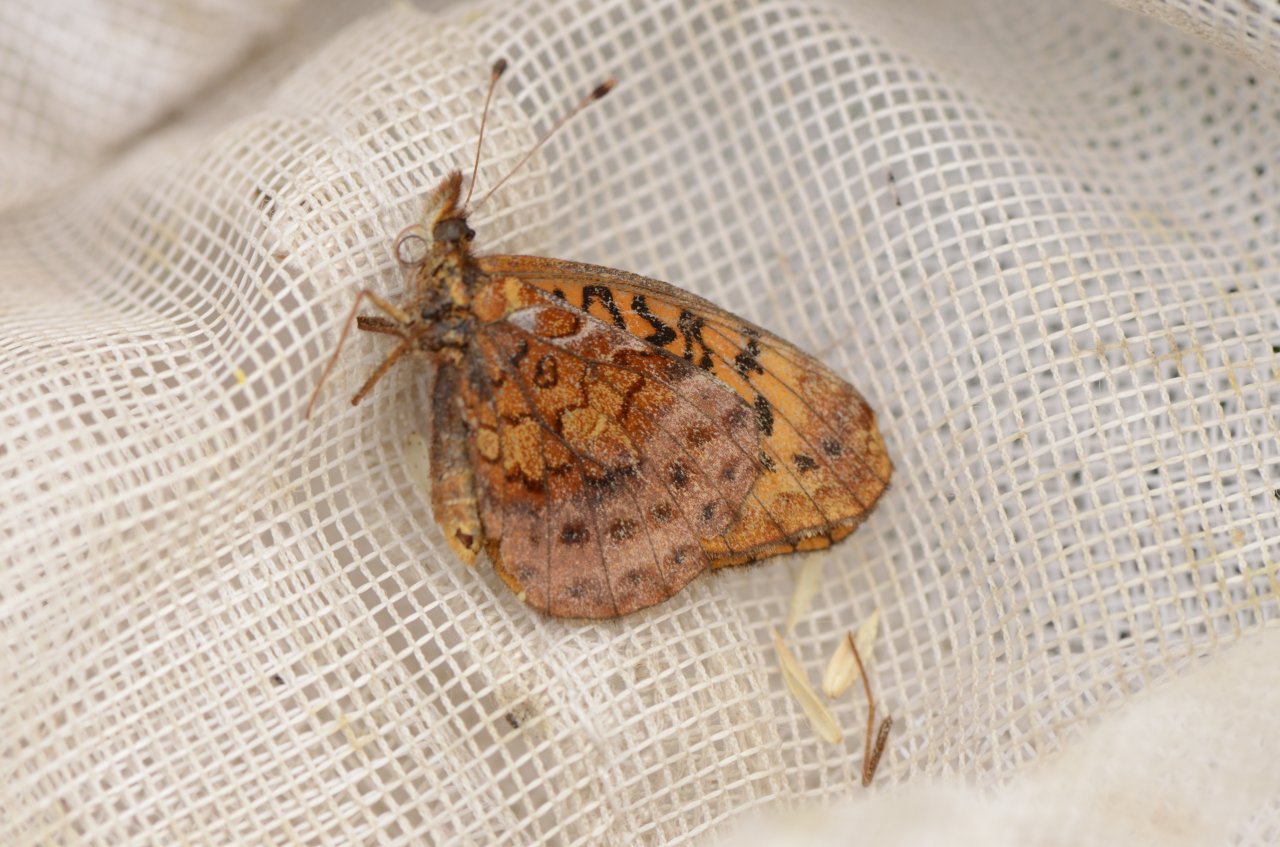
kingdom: Animalia
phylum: Arthropoda
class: Insecta
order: Lepidoptera
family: Nymphalidae
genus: Clossiana
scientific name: Clossiana toddi
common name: Meadow Fritillary
